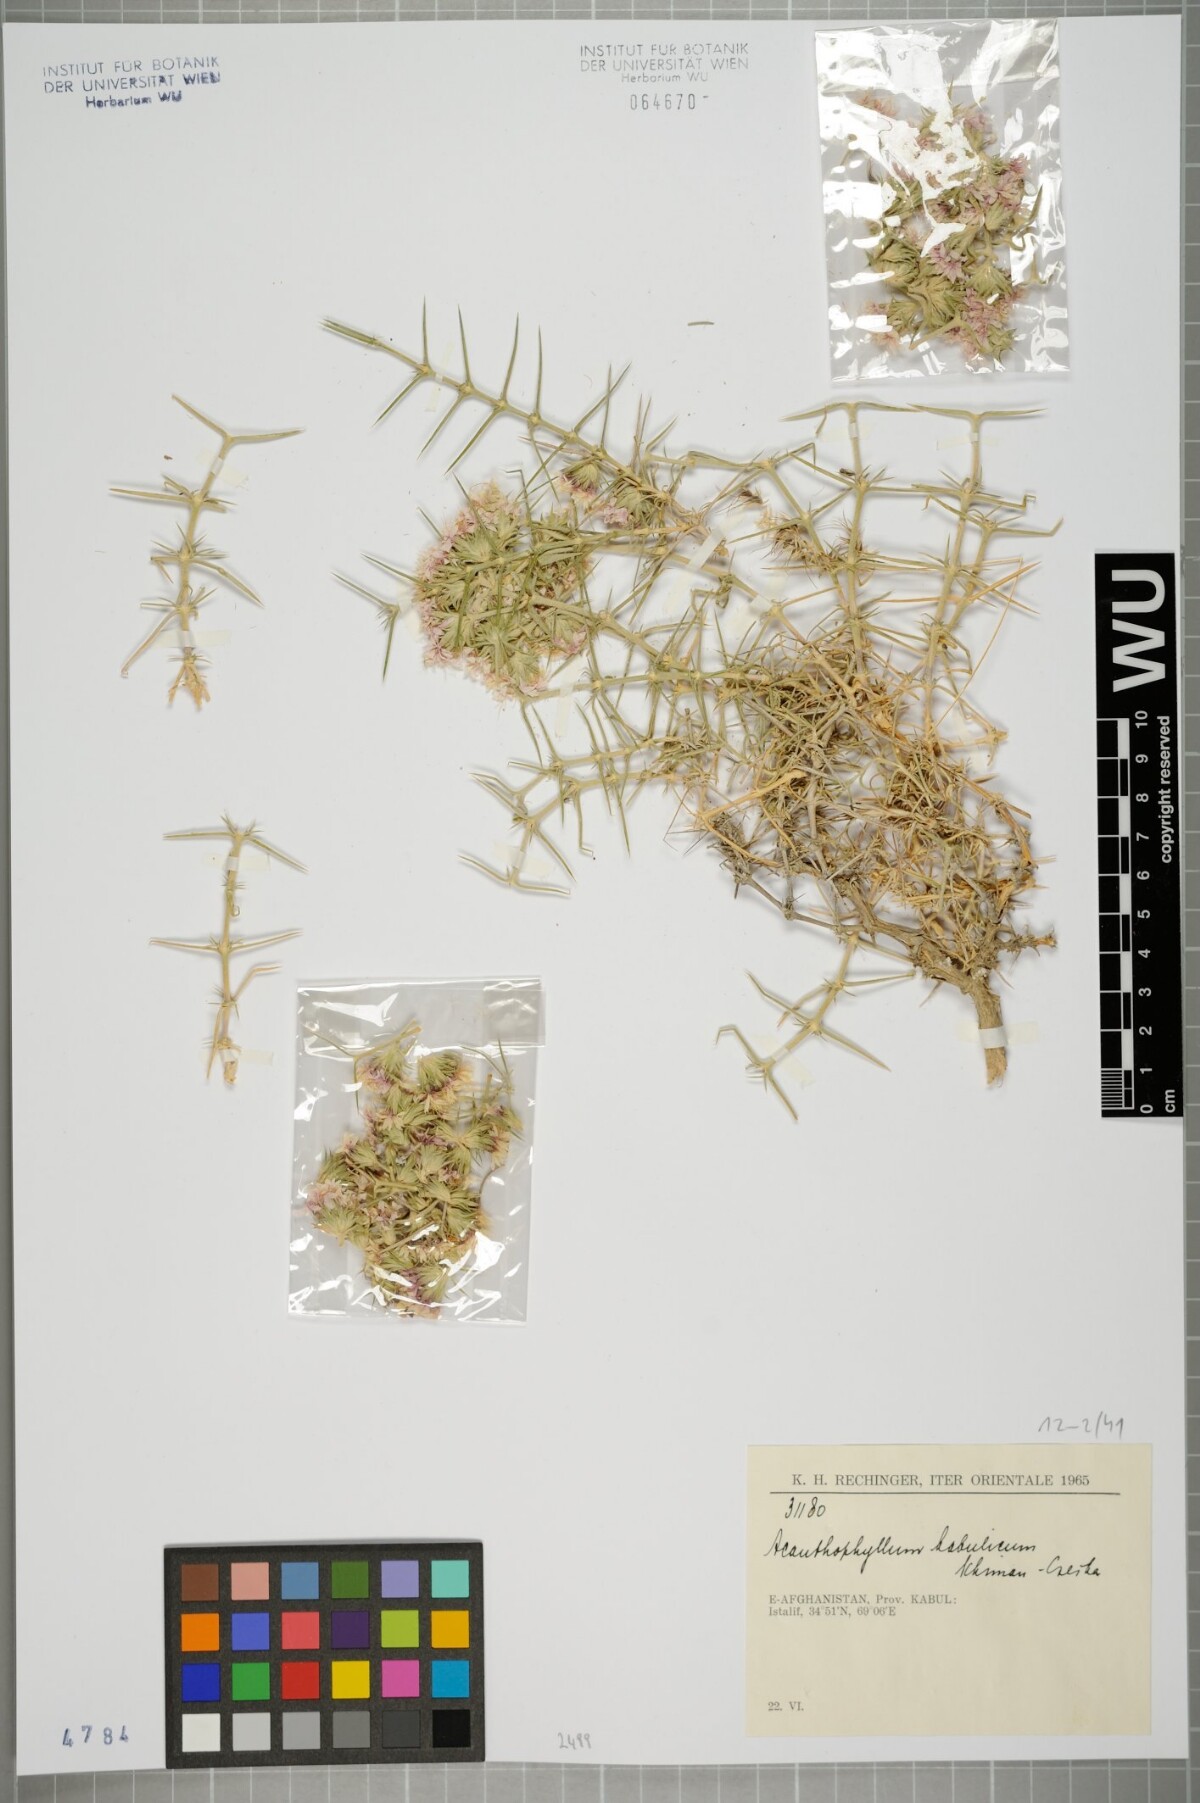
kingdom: Plantae
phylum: Tracheophyta
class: Magnoliopsida
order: Caryophyllales
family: Caryophyllaceae
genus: Acanthophyllum
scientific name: Acanthophyllum kabulicum
